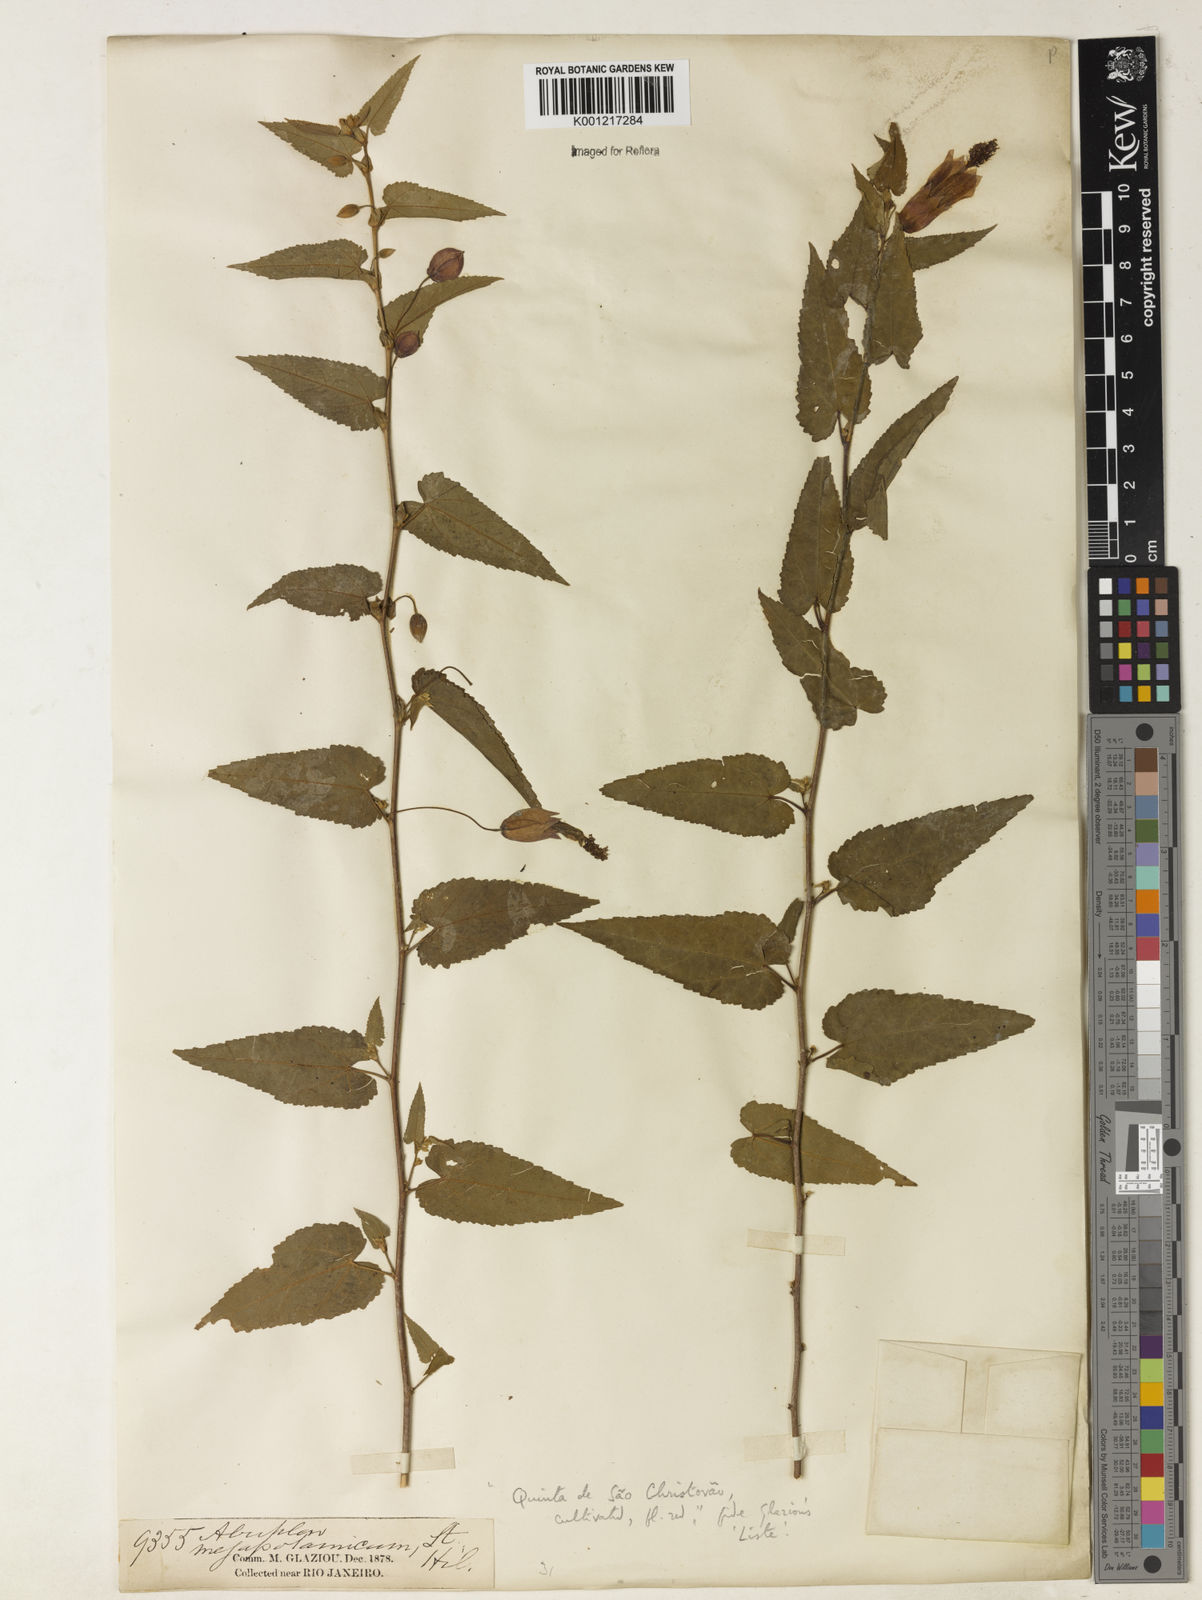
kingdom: Plantae
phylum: Tracheophyta
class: Magnoliopsida
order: Malvales
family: Malvaceae
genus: Callianthe
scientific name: Callianthe megapotamica
